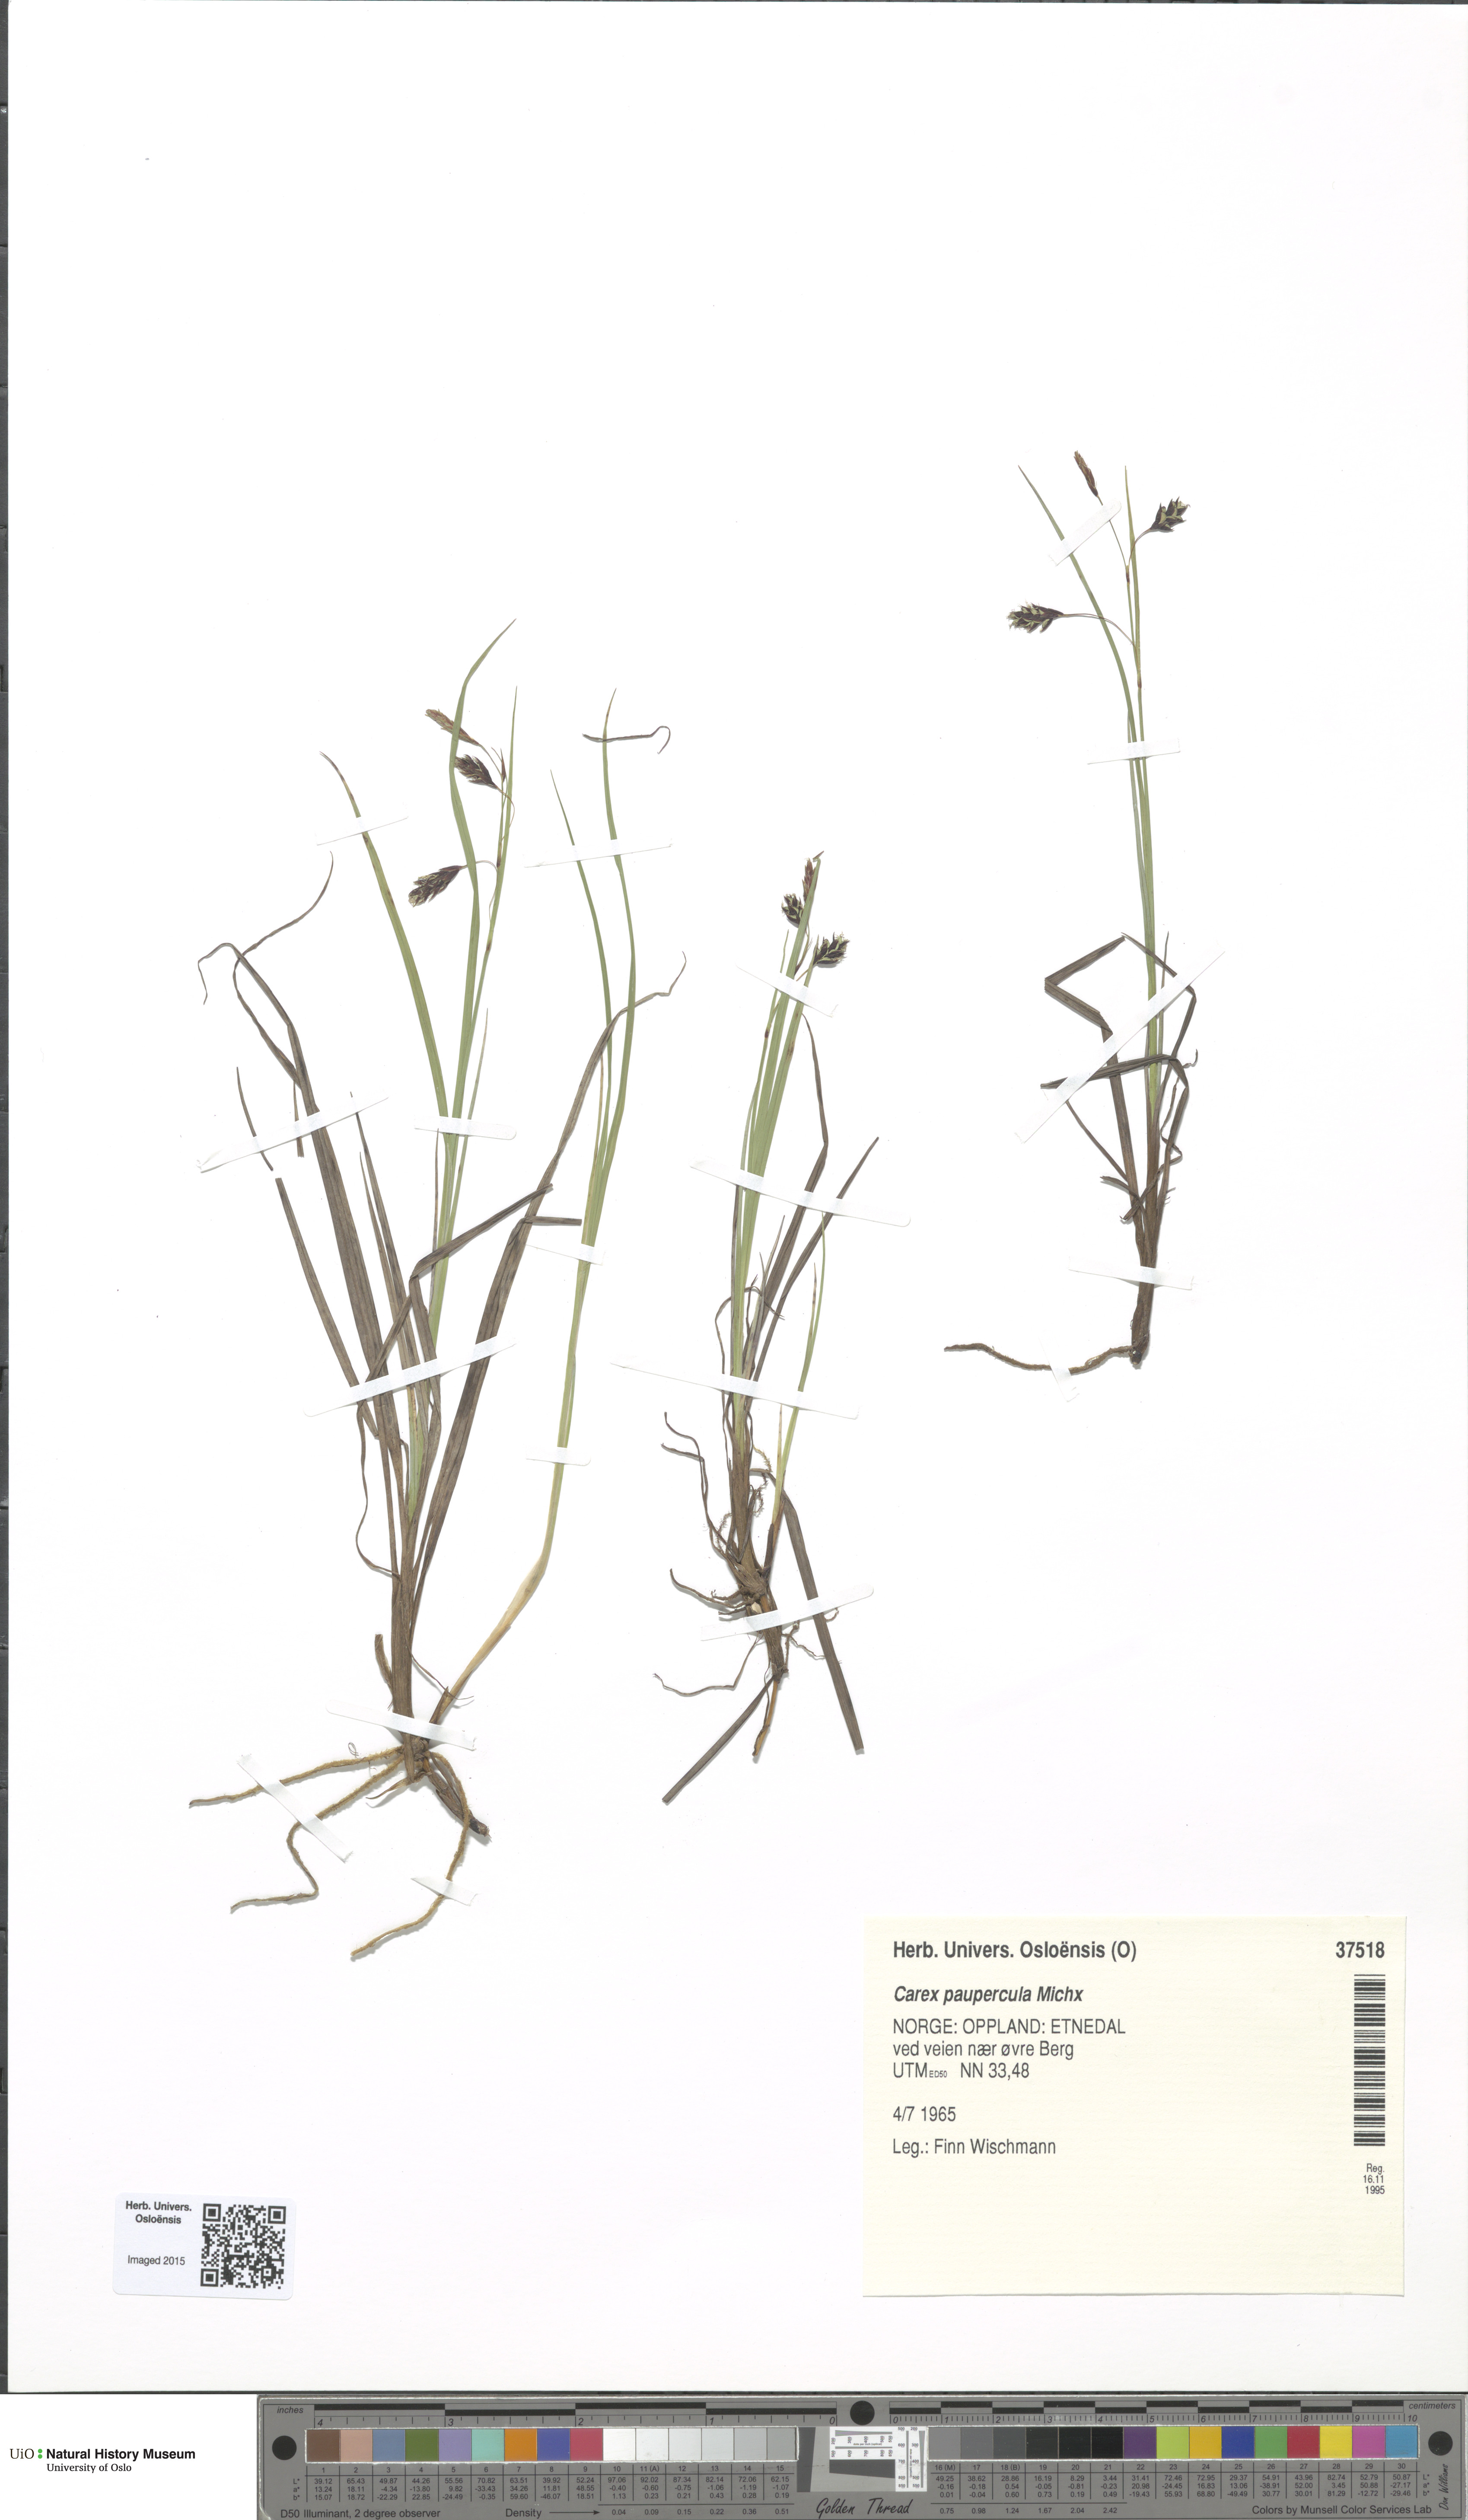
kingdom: Plantae
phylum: Tracheophyta
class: Liliopsida
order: Poales
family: Cyperaceae
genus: Carex
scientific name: Carex magellanica
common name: Bog sedge
